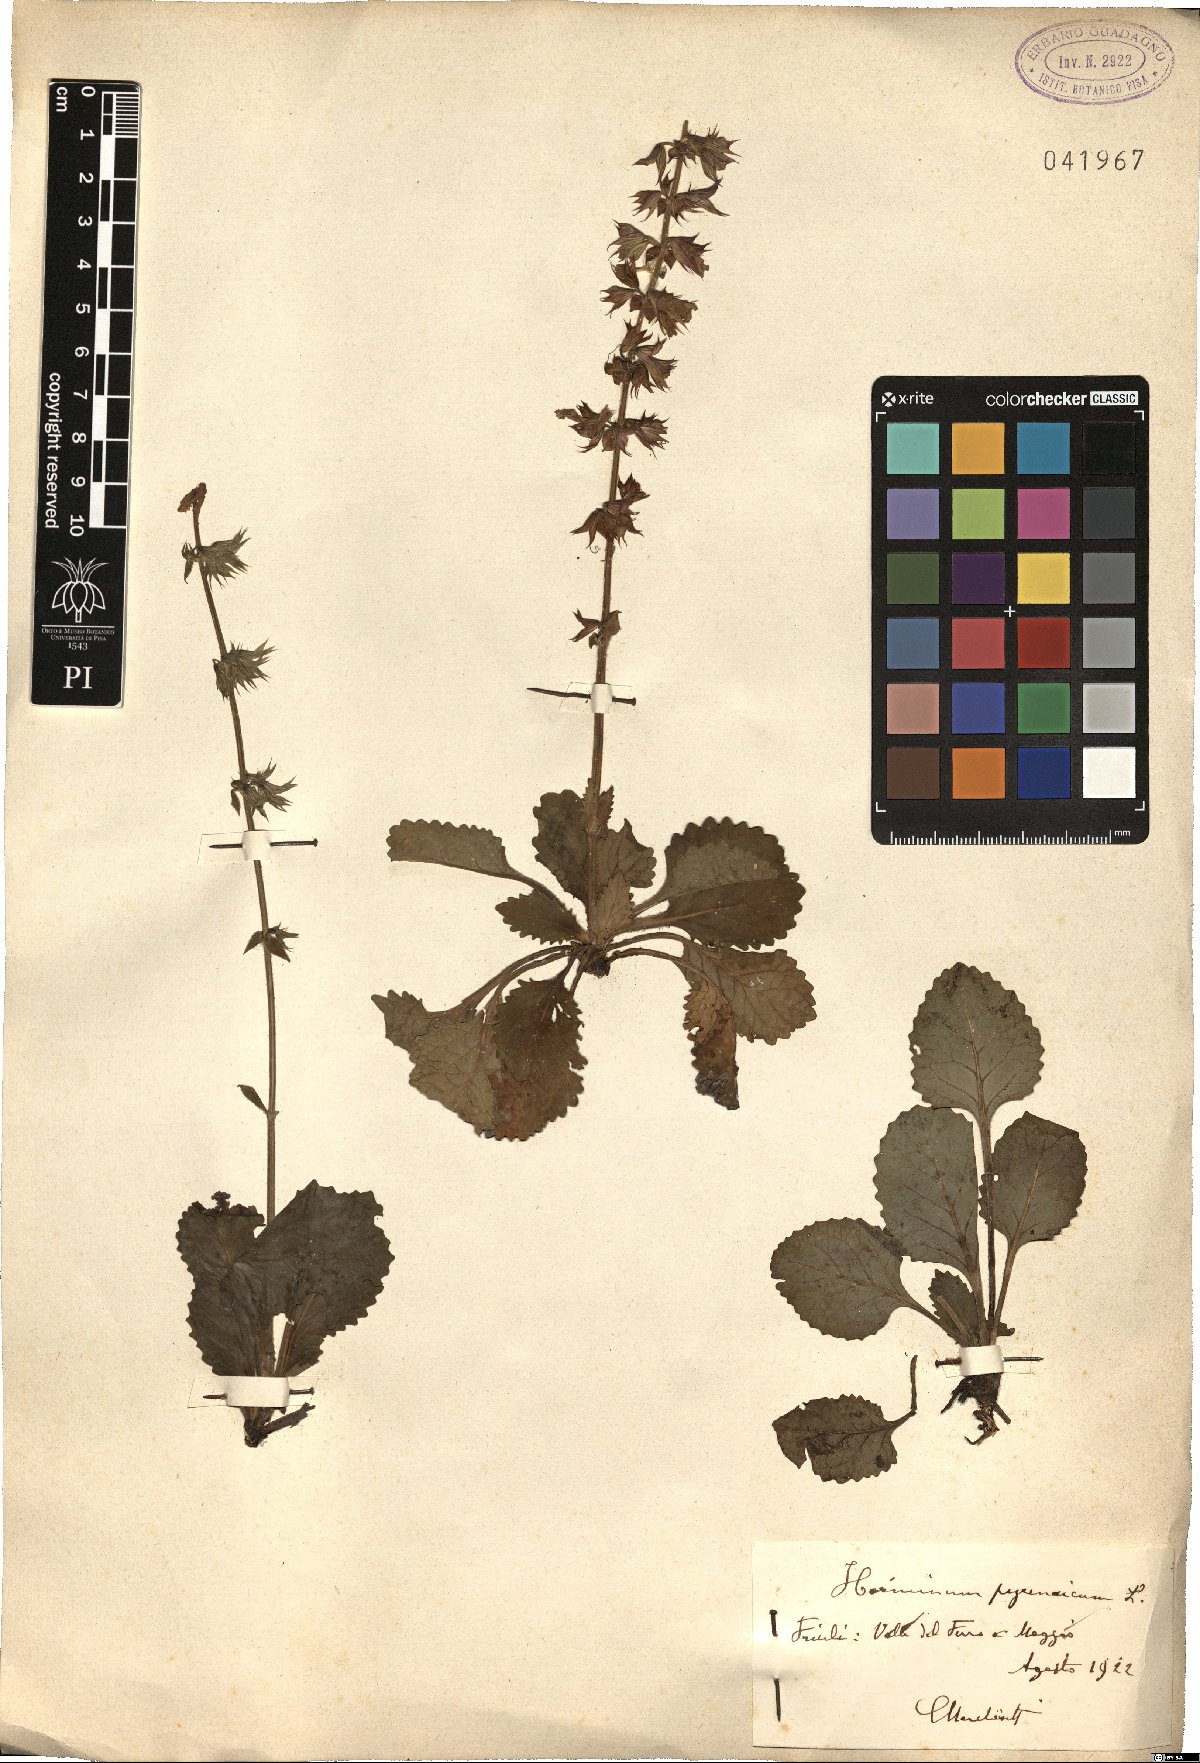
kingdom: Plantae
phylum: Tracheophyta
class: Magnoliopsida
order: Lamiales
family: Lamiaceae
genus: Horminum
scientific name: Horminum pyrenaicum
